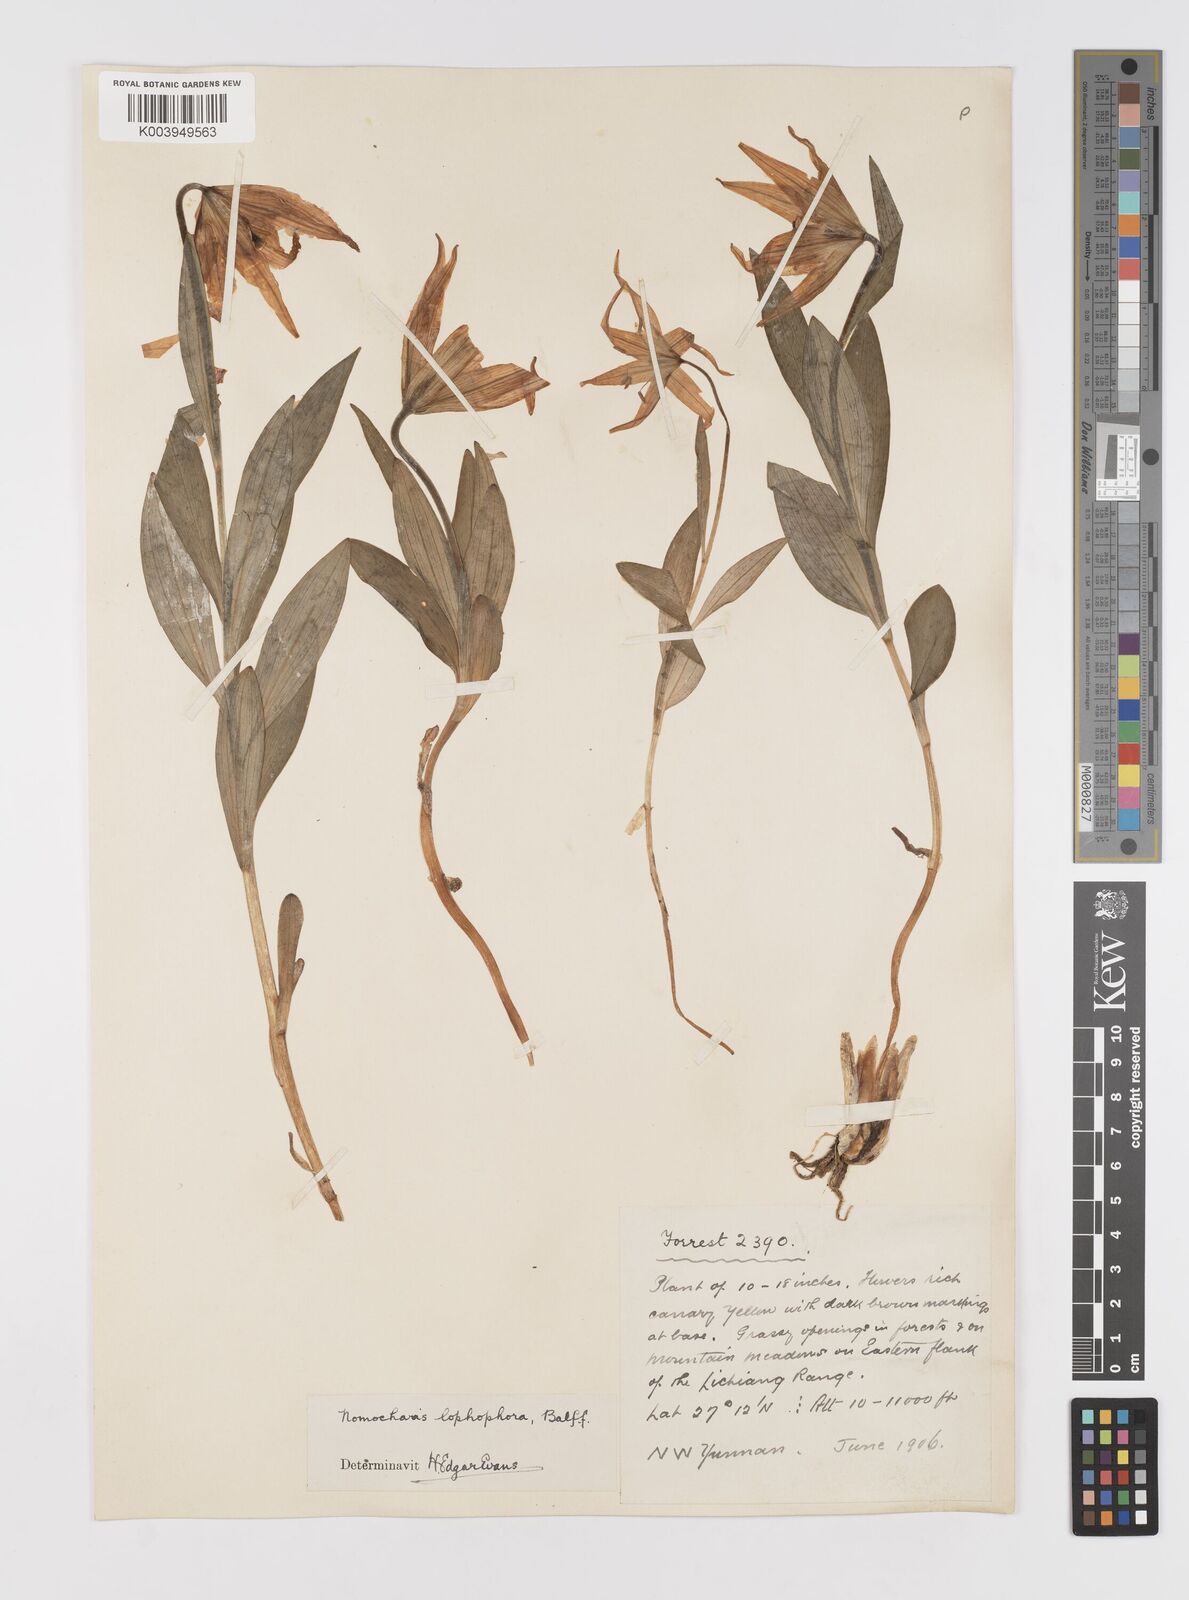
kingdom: Plantae
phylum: Tracheophyta
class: Liliopsida
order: Liliales
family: Liliaceae
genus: Lilium
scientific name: Lilium lophophorum
